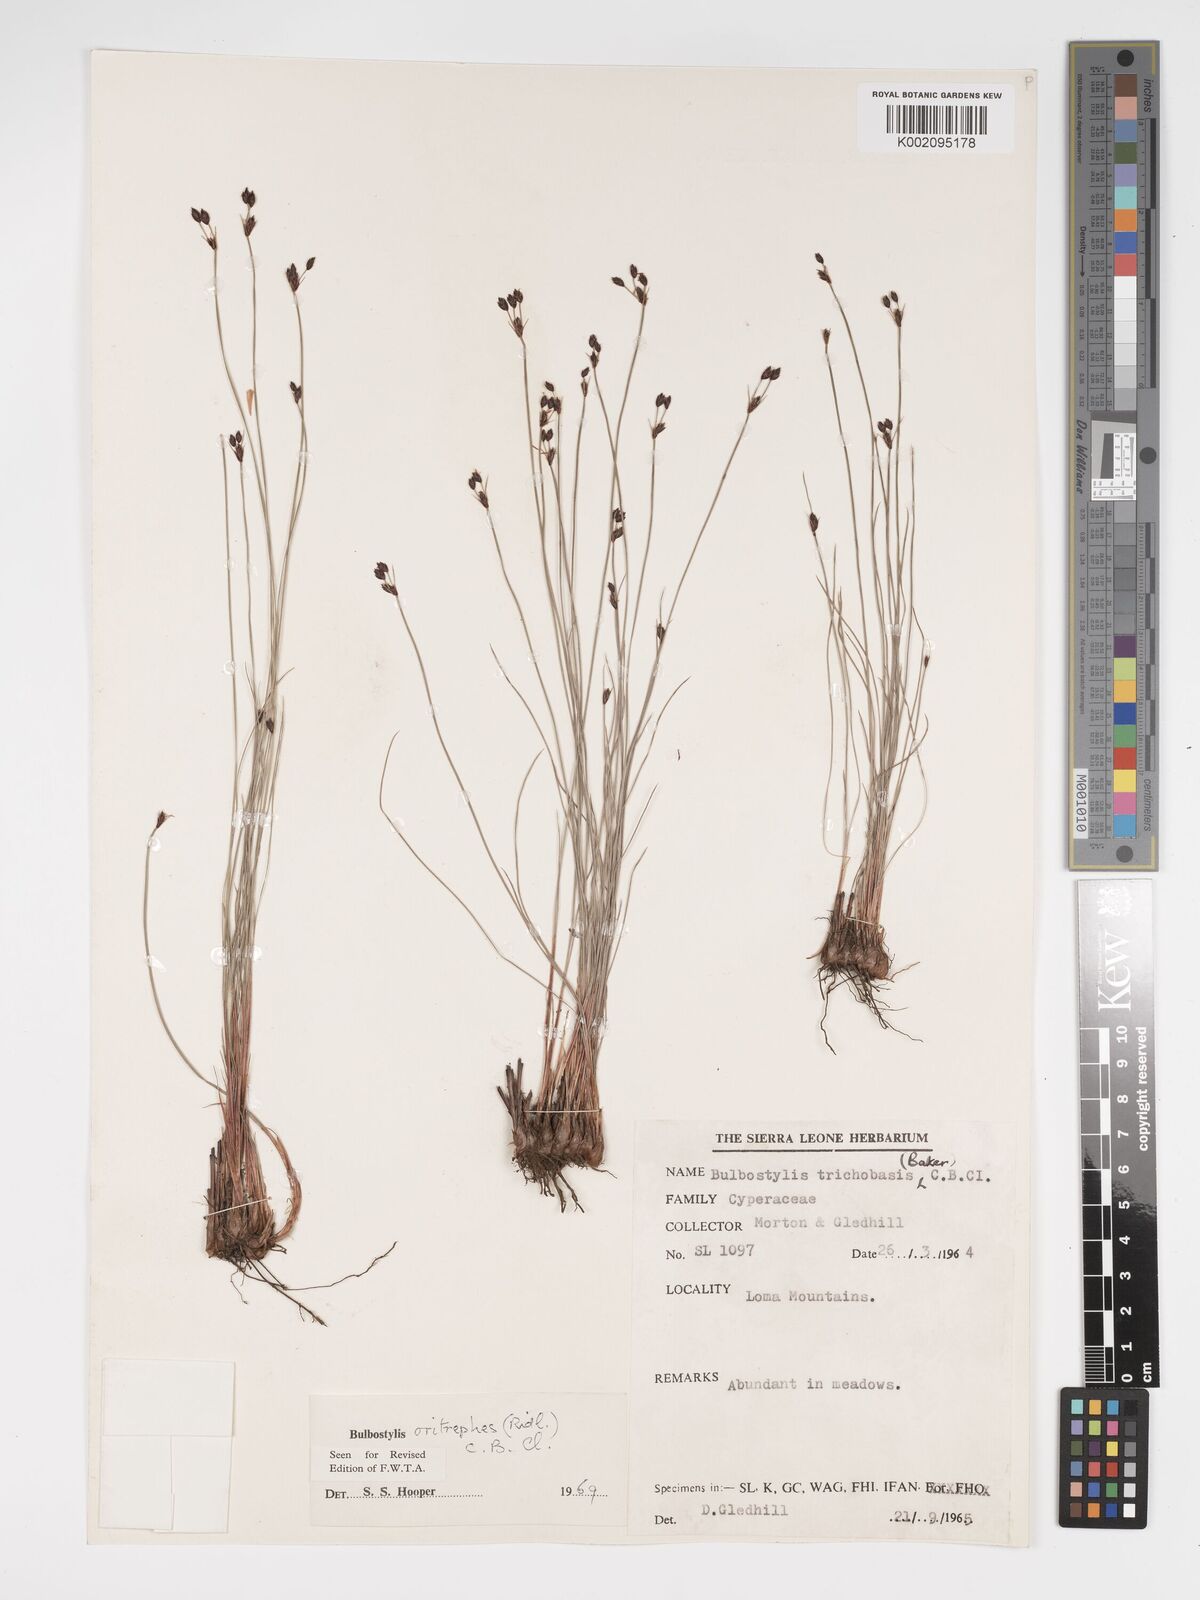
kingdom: Plantae
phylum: Tracheophyta
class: Liliopsida
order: Poales
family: Cyperaceae
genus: Bulbostylis
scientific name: Bulbostylis oritrephes
